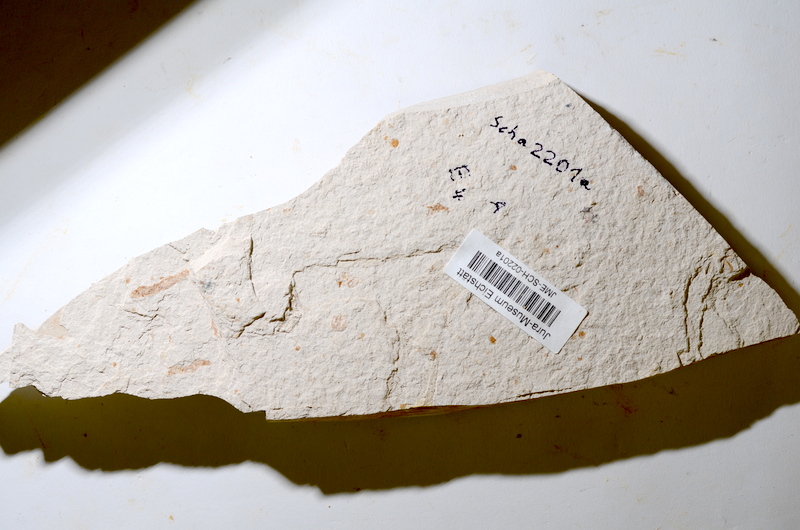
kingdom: Animalia
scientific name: Animalia
